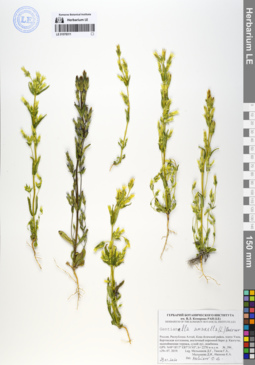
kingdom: Plantae
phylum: Tracheophyta
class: Magnoliopsida
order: Gentianales
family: Gentianaceae
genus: Gentianella
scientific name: Gentianella amarella
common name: Autumn gentian
